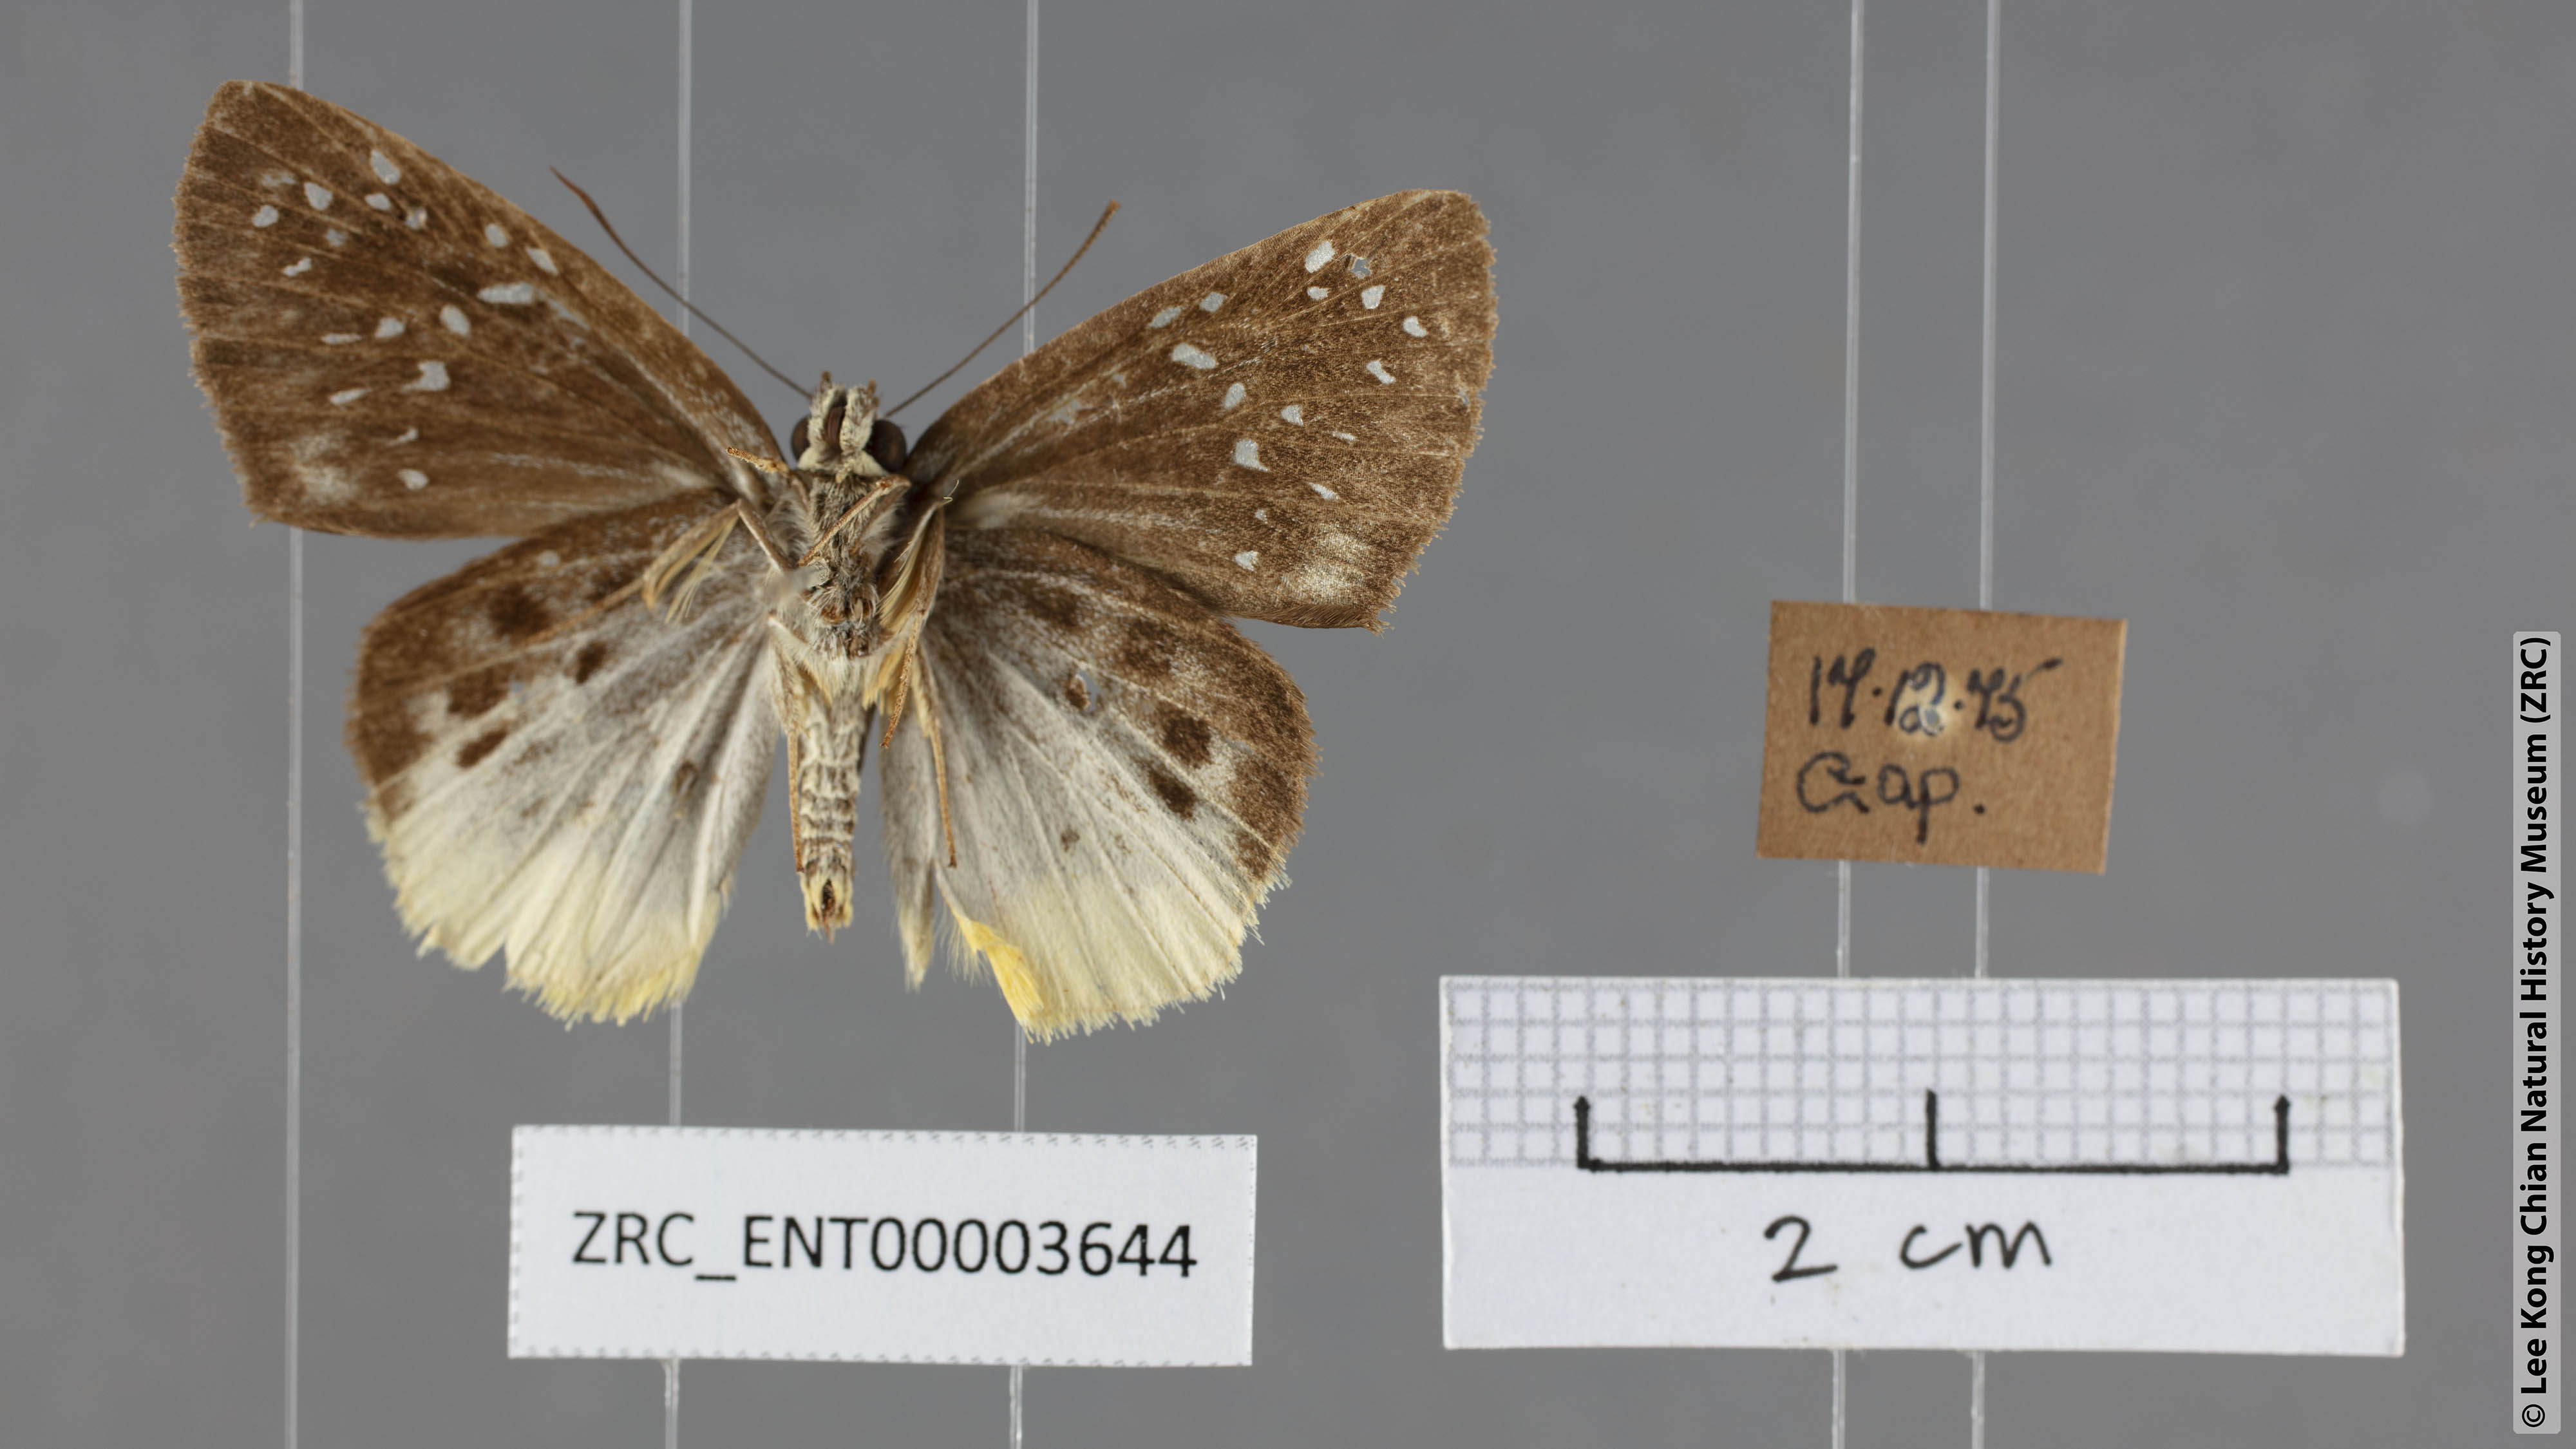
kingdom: Animalia
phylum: Arthropoda
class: Insecta
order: Lepidoptera
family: Hesperiidae
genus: Mooreana
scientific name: Mooreana trichoneura
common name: Yellow flat
